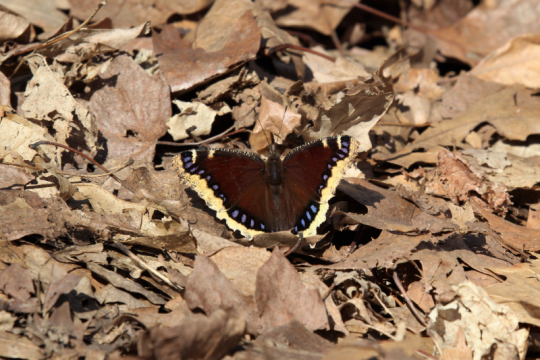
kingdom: Animalia
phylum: Arthropoda
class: Insecta
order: Lepidoptera
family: Nymphalidae
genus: Nymphalis
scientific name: Nymphalis antiopa
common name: Mourning Cloak
